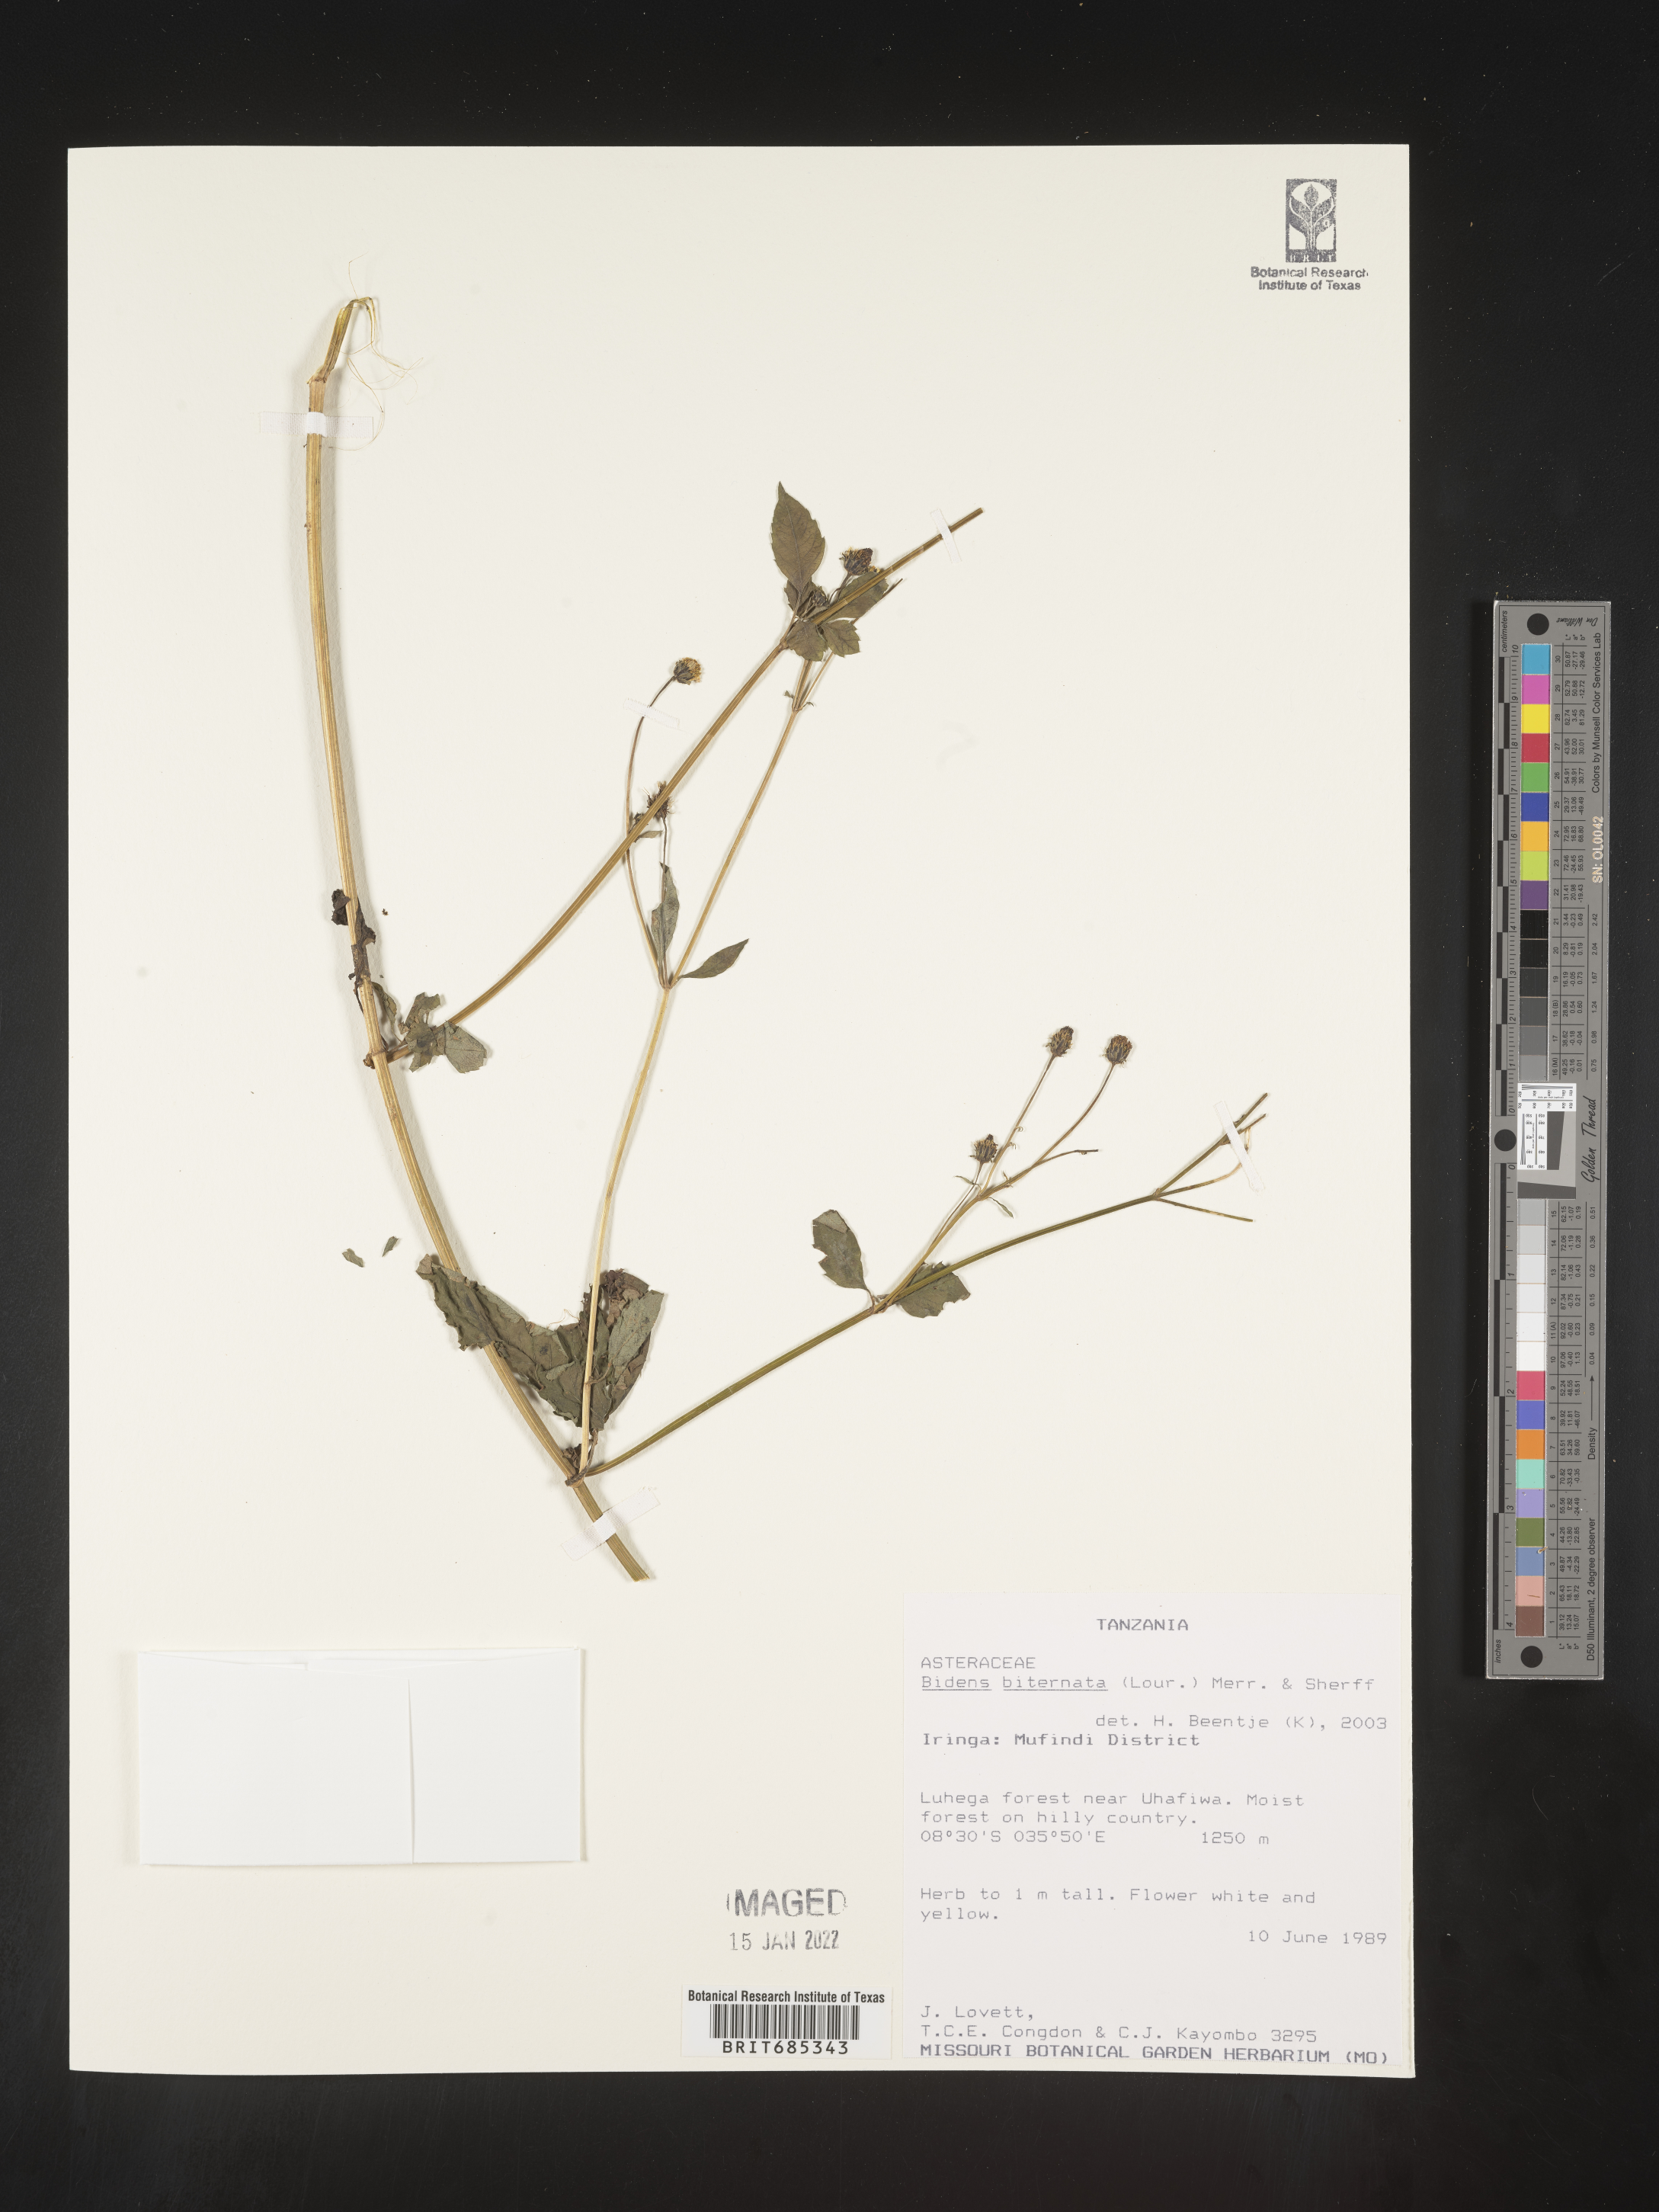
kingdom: Plantae
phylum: Tracheophyta
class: Magnoliopsida
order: Asterales
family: Asteraceae
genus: Bidens
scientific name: Bidens
